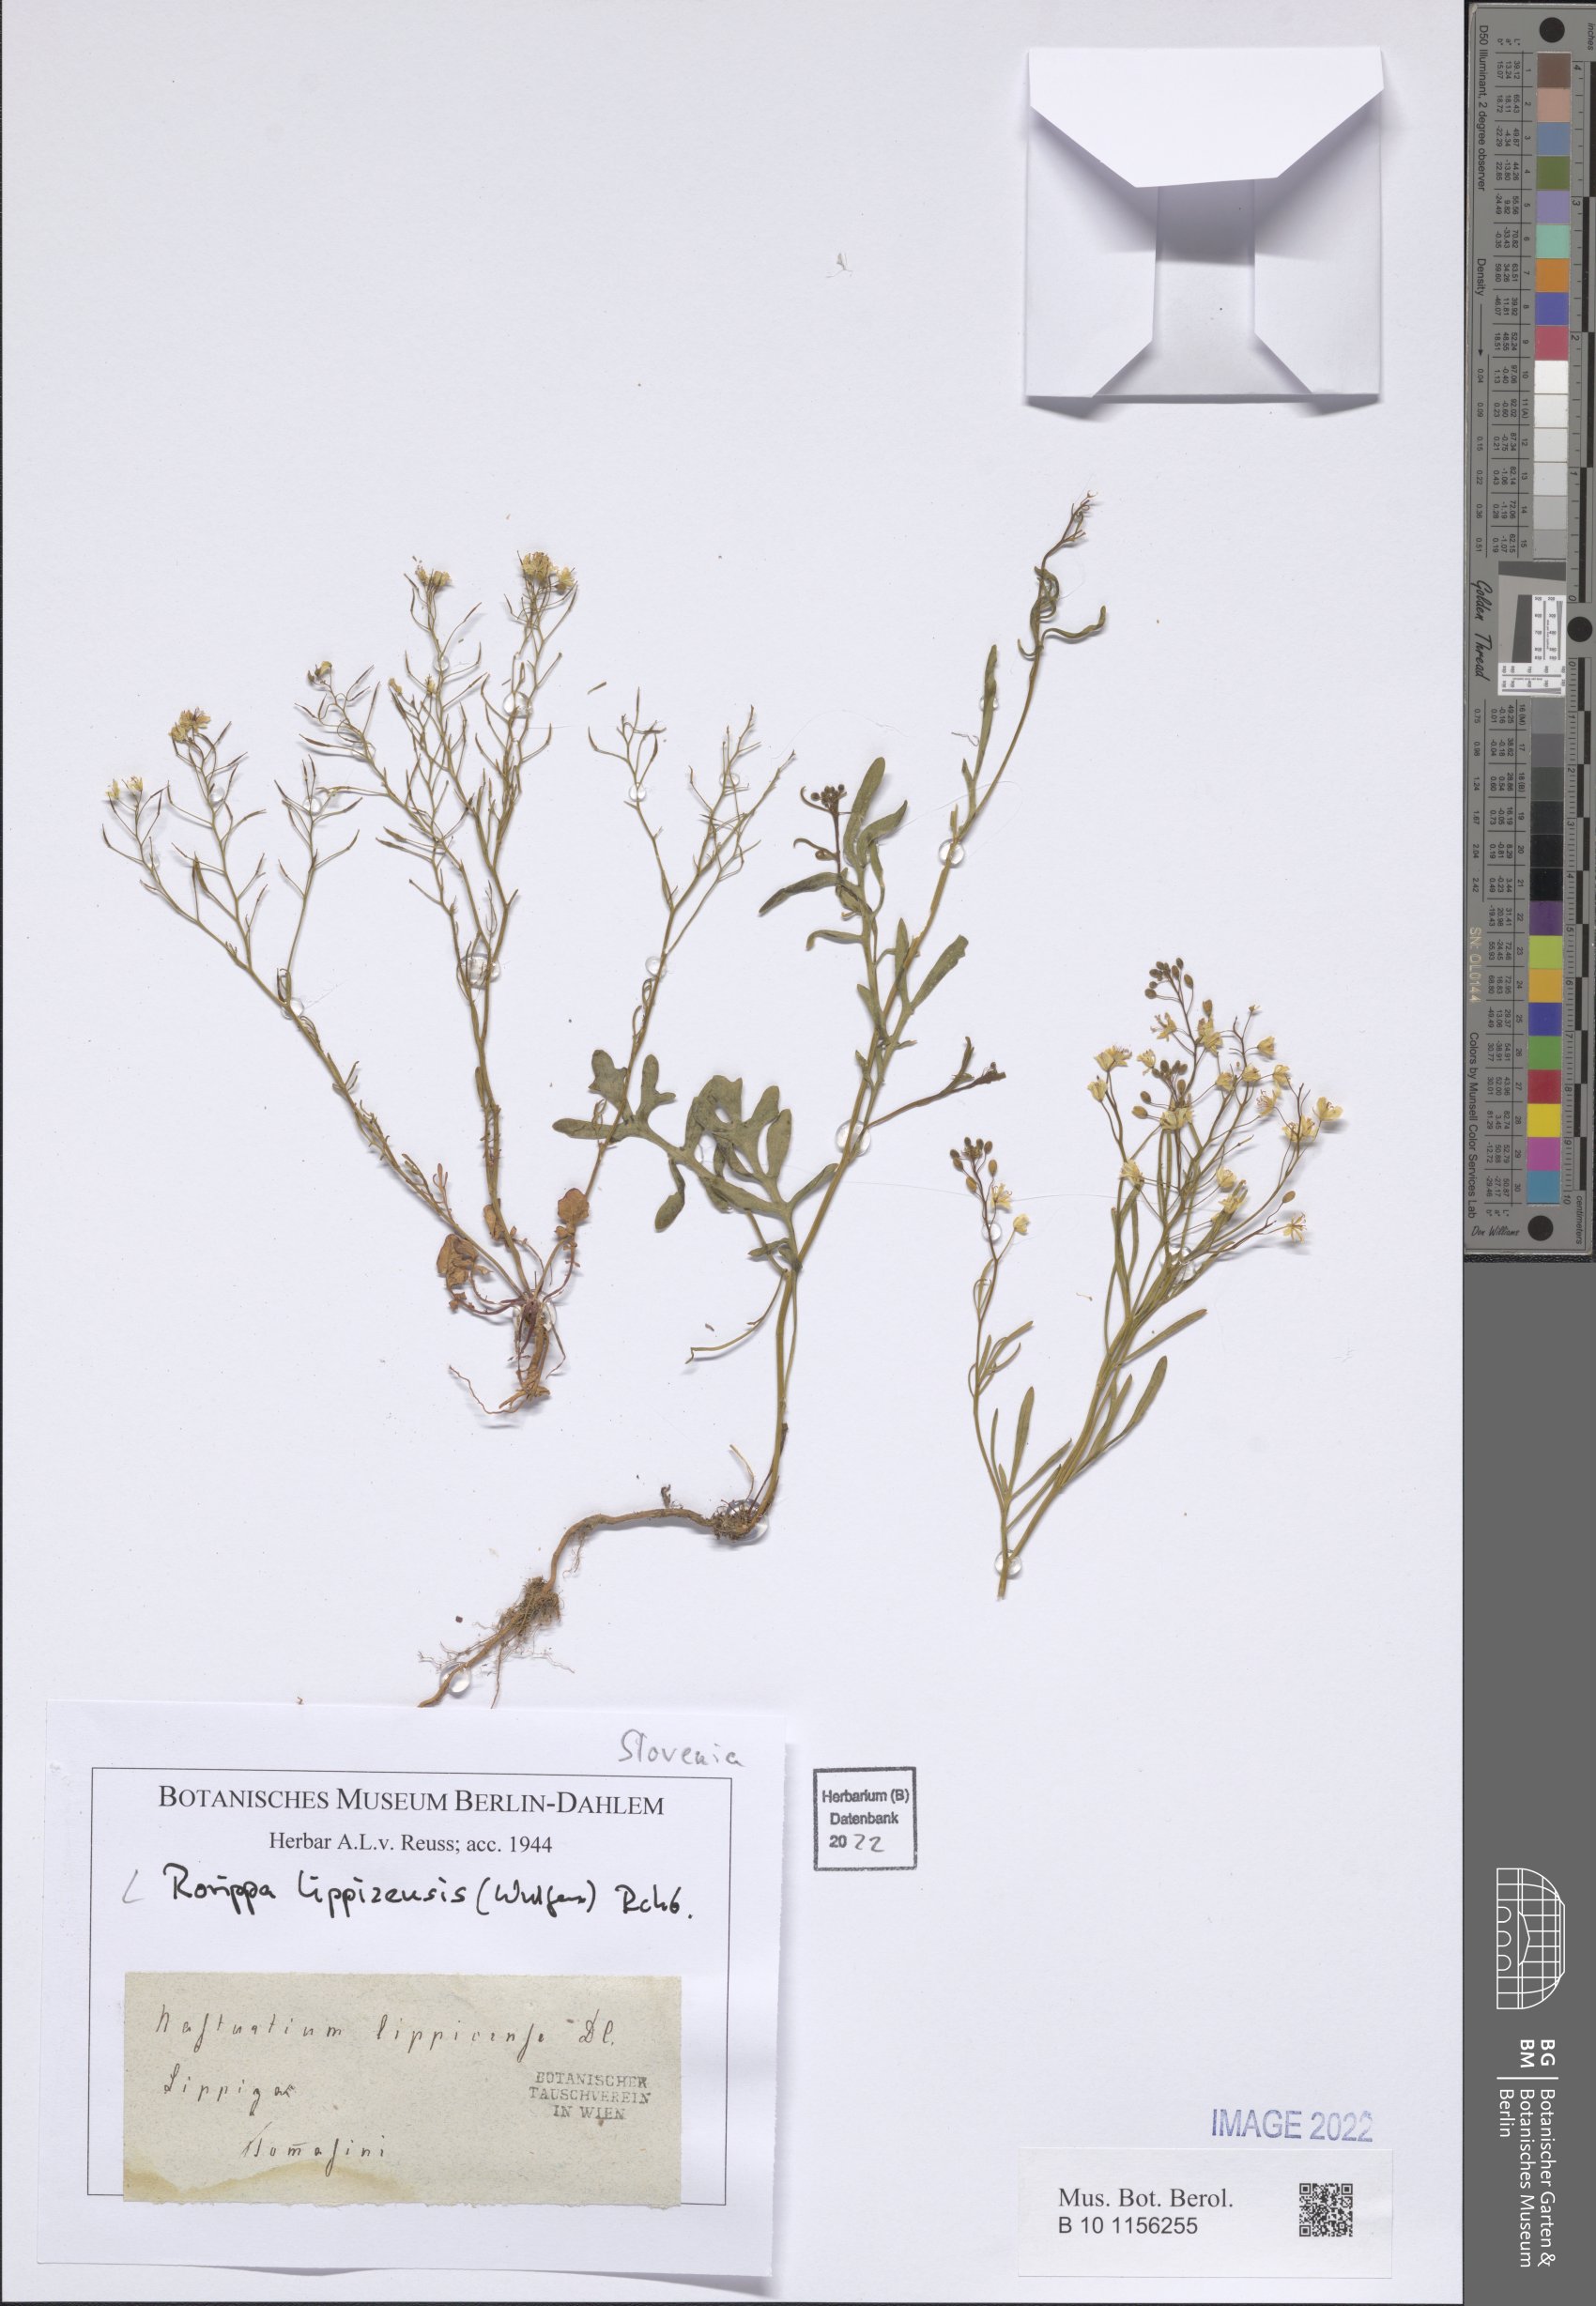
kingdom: Plantae
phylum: Tracheophyta
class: Magnoliopsida
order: Brassicales
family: Brassicaceae
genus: Rorippa
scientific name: Rorippa lippizensis
